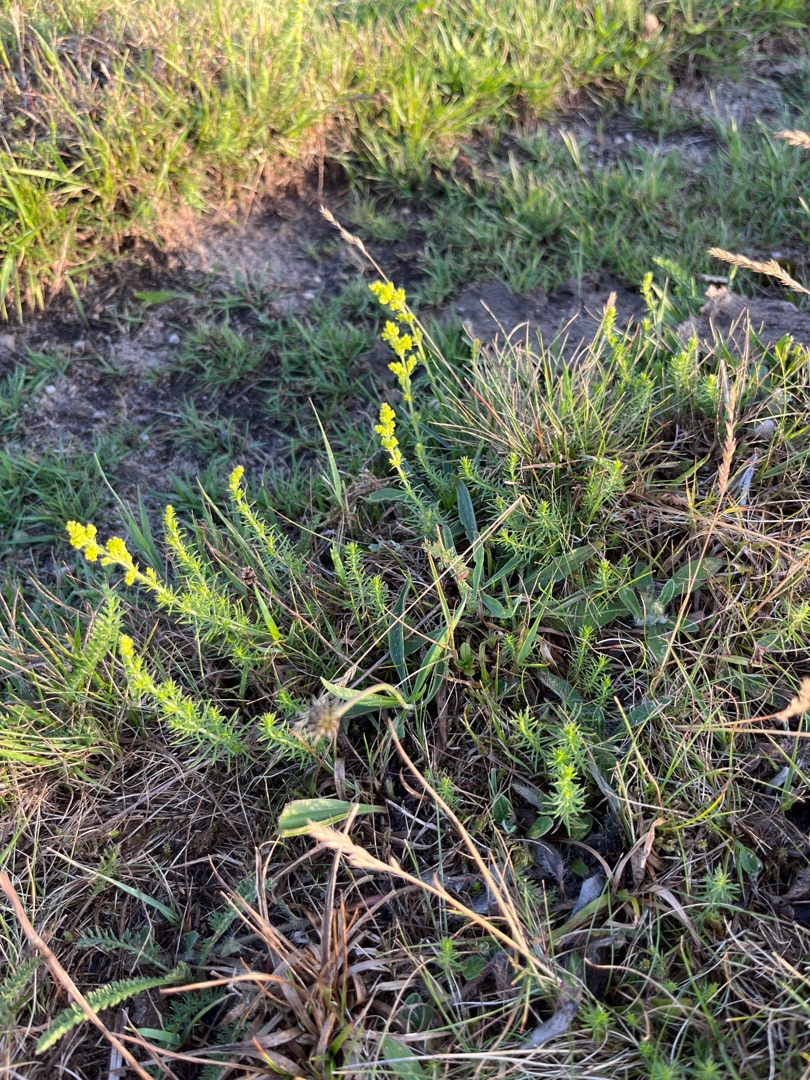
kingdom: Plantae
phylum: Tracheophyta
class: Magnoliopsida
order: Gentianales
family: Rubiaceae
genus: Galium
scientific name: Galium verum
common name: Gul snerre
